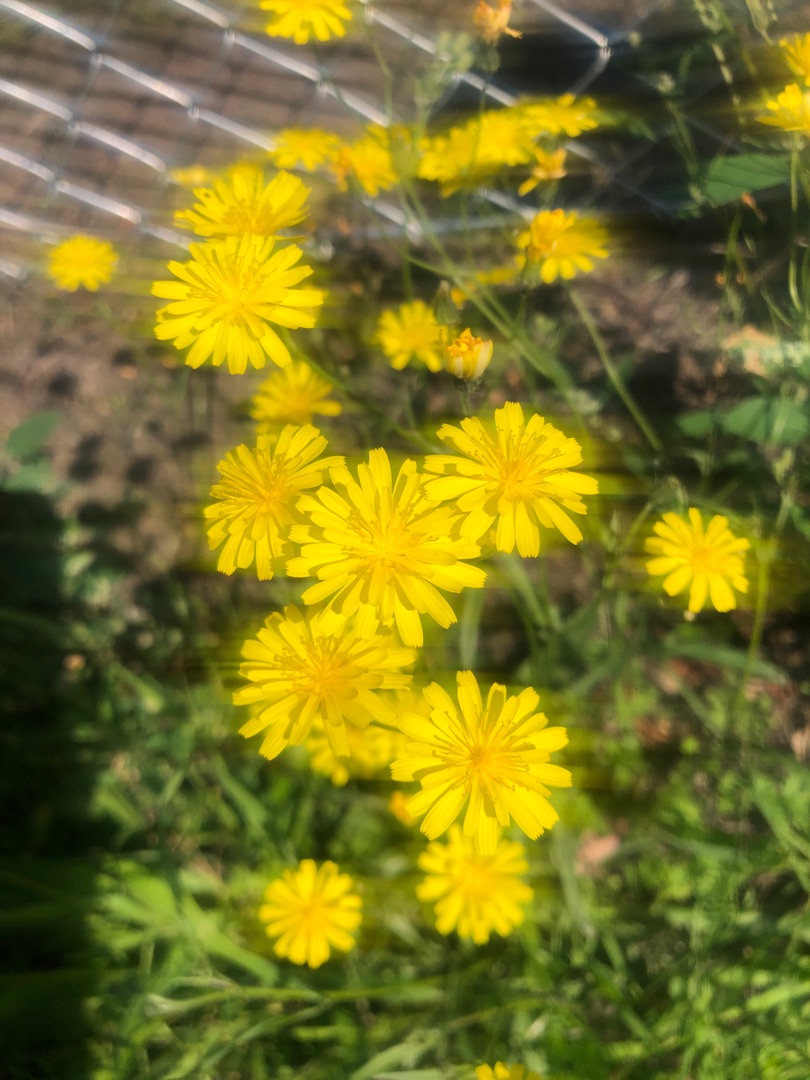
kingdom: Plantae
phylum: Tracheophyta
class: Magnoliopsida
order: Asterales
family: Asteraceae
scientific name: Asteraceae
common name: Kurvblomstfamilien
